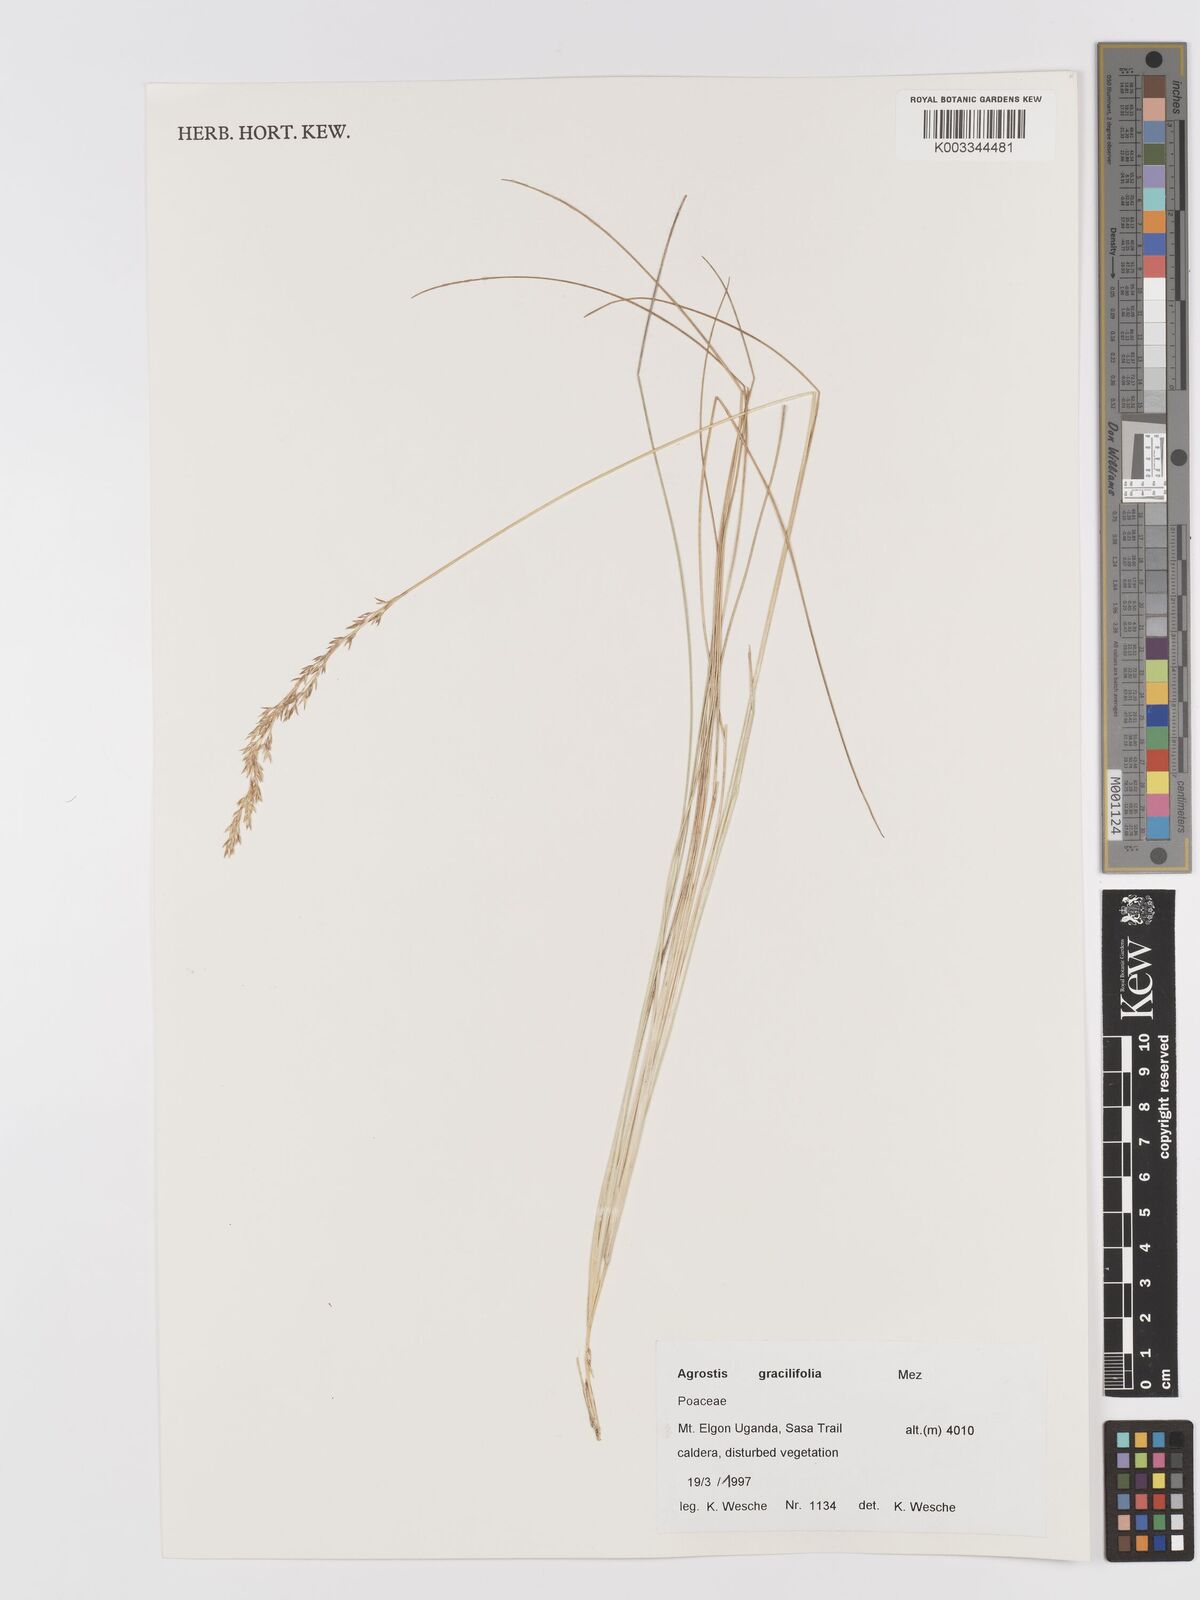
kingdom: Plantae
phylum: Tracheophyta
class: Liliopsida
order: Poales
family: Poaceae
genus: Agrostis
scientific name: Agrostis gracilifolia
